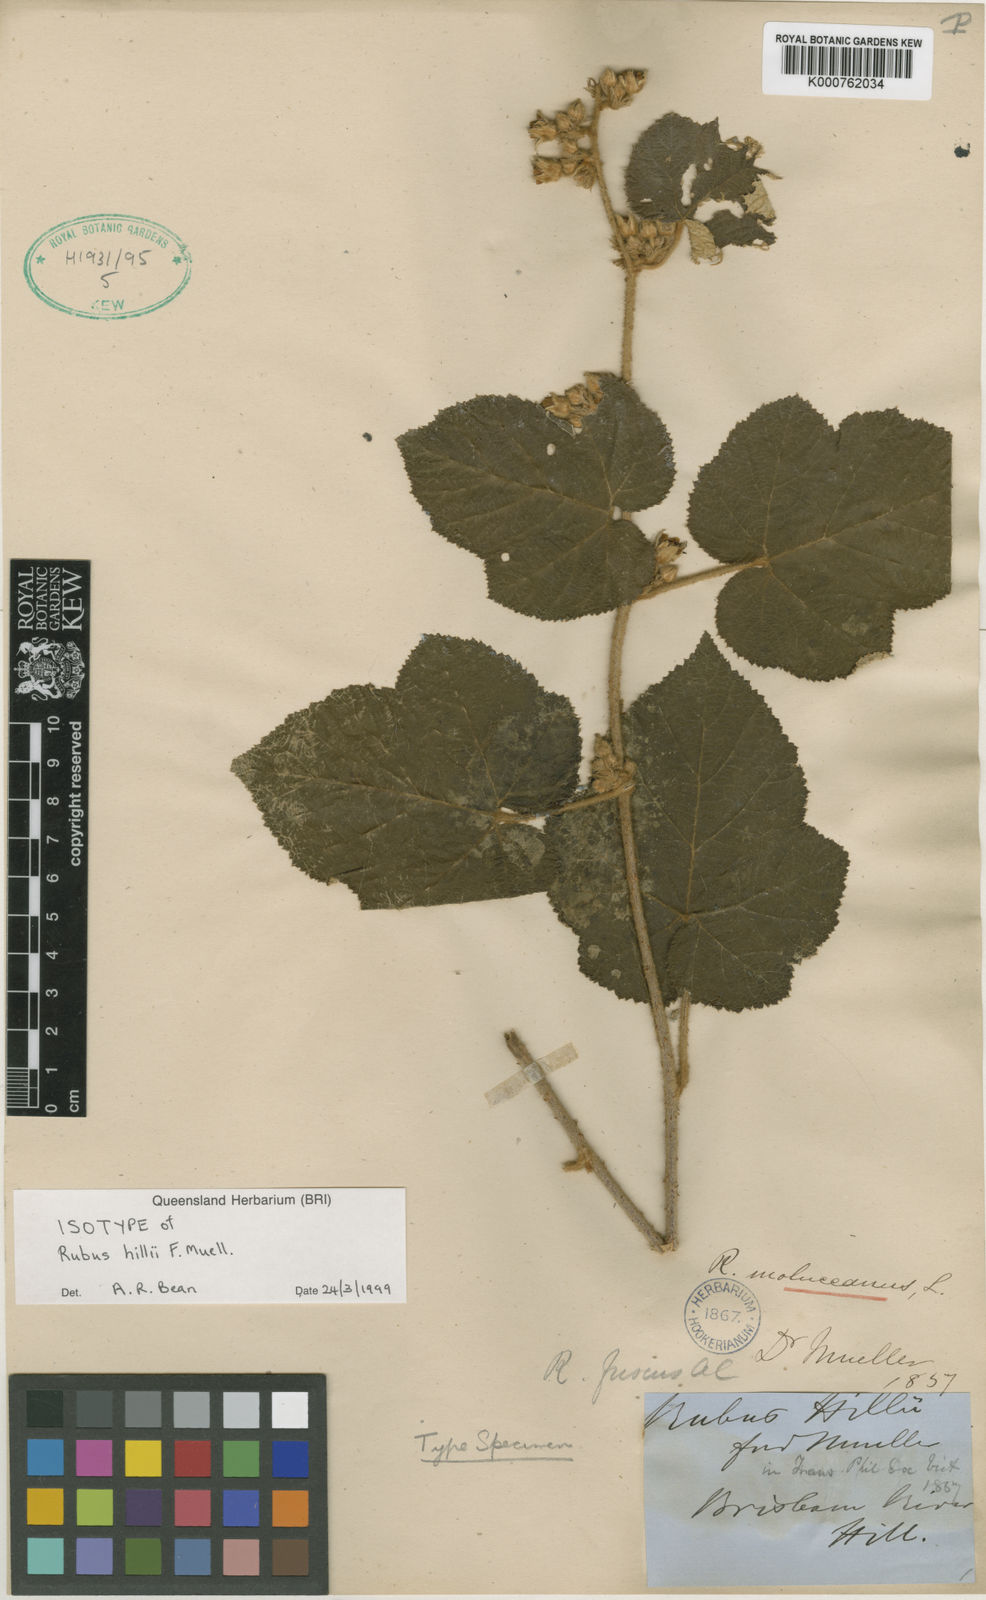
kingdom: Plantae
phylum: Tracheophyta
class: Magnoliopsida
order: Rosales
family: Rosaceae
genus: Rubus
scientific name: Rubus moluccanus
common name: Wild raspberry
